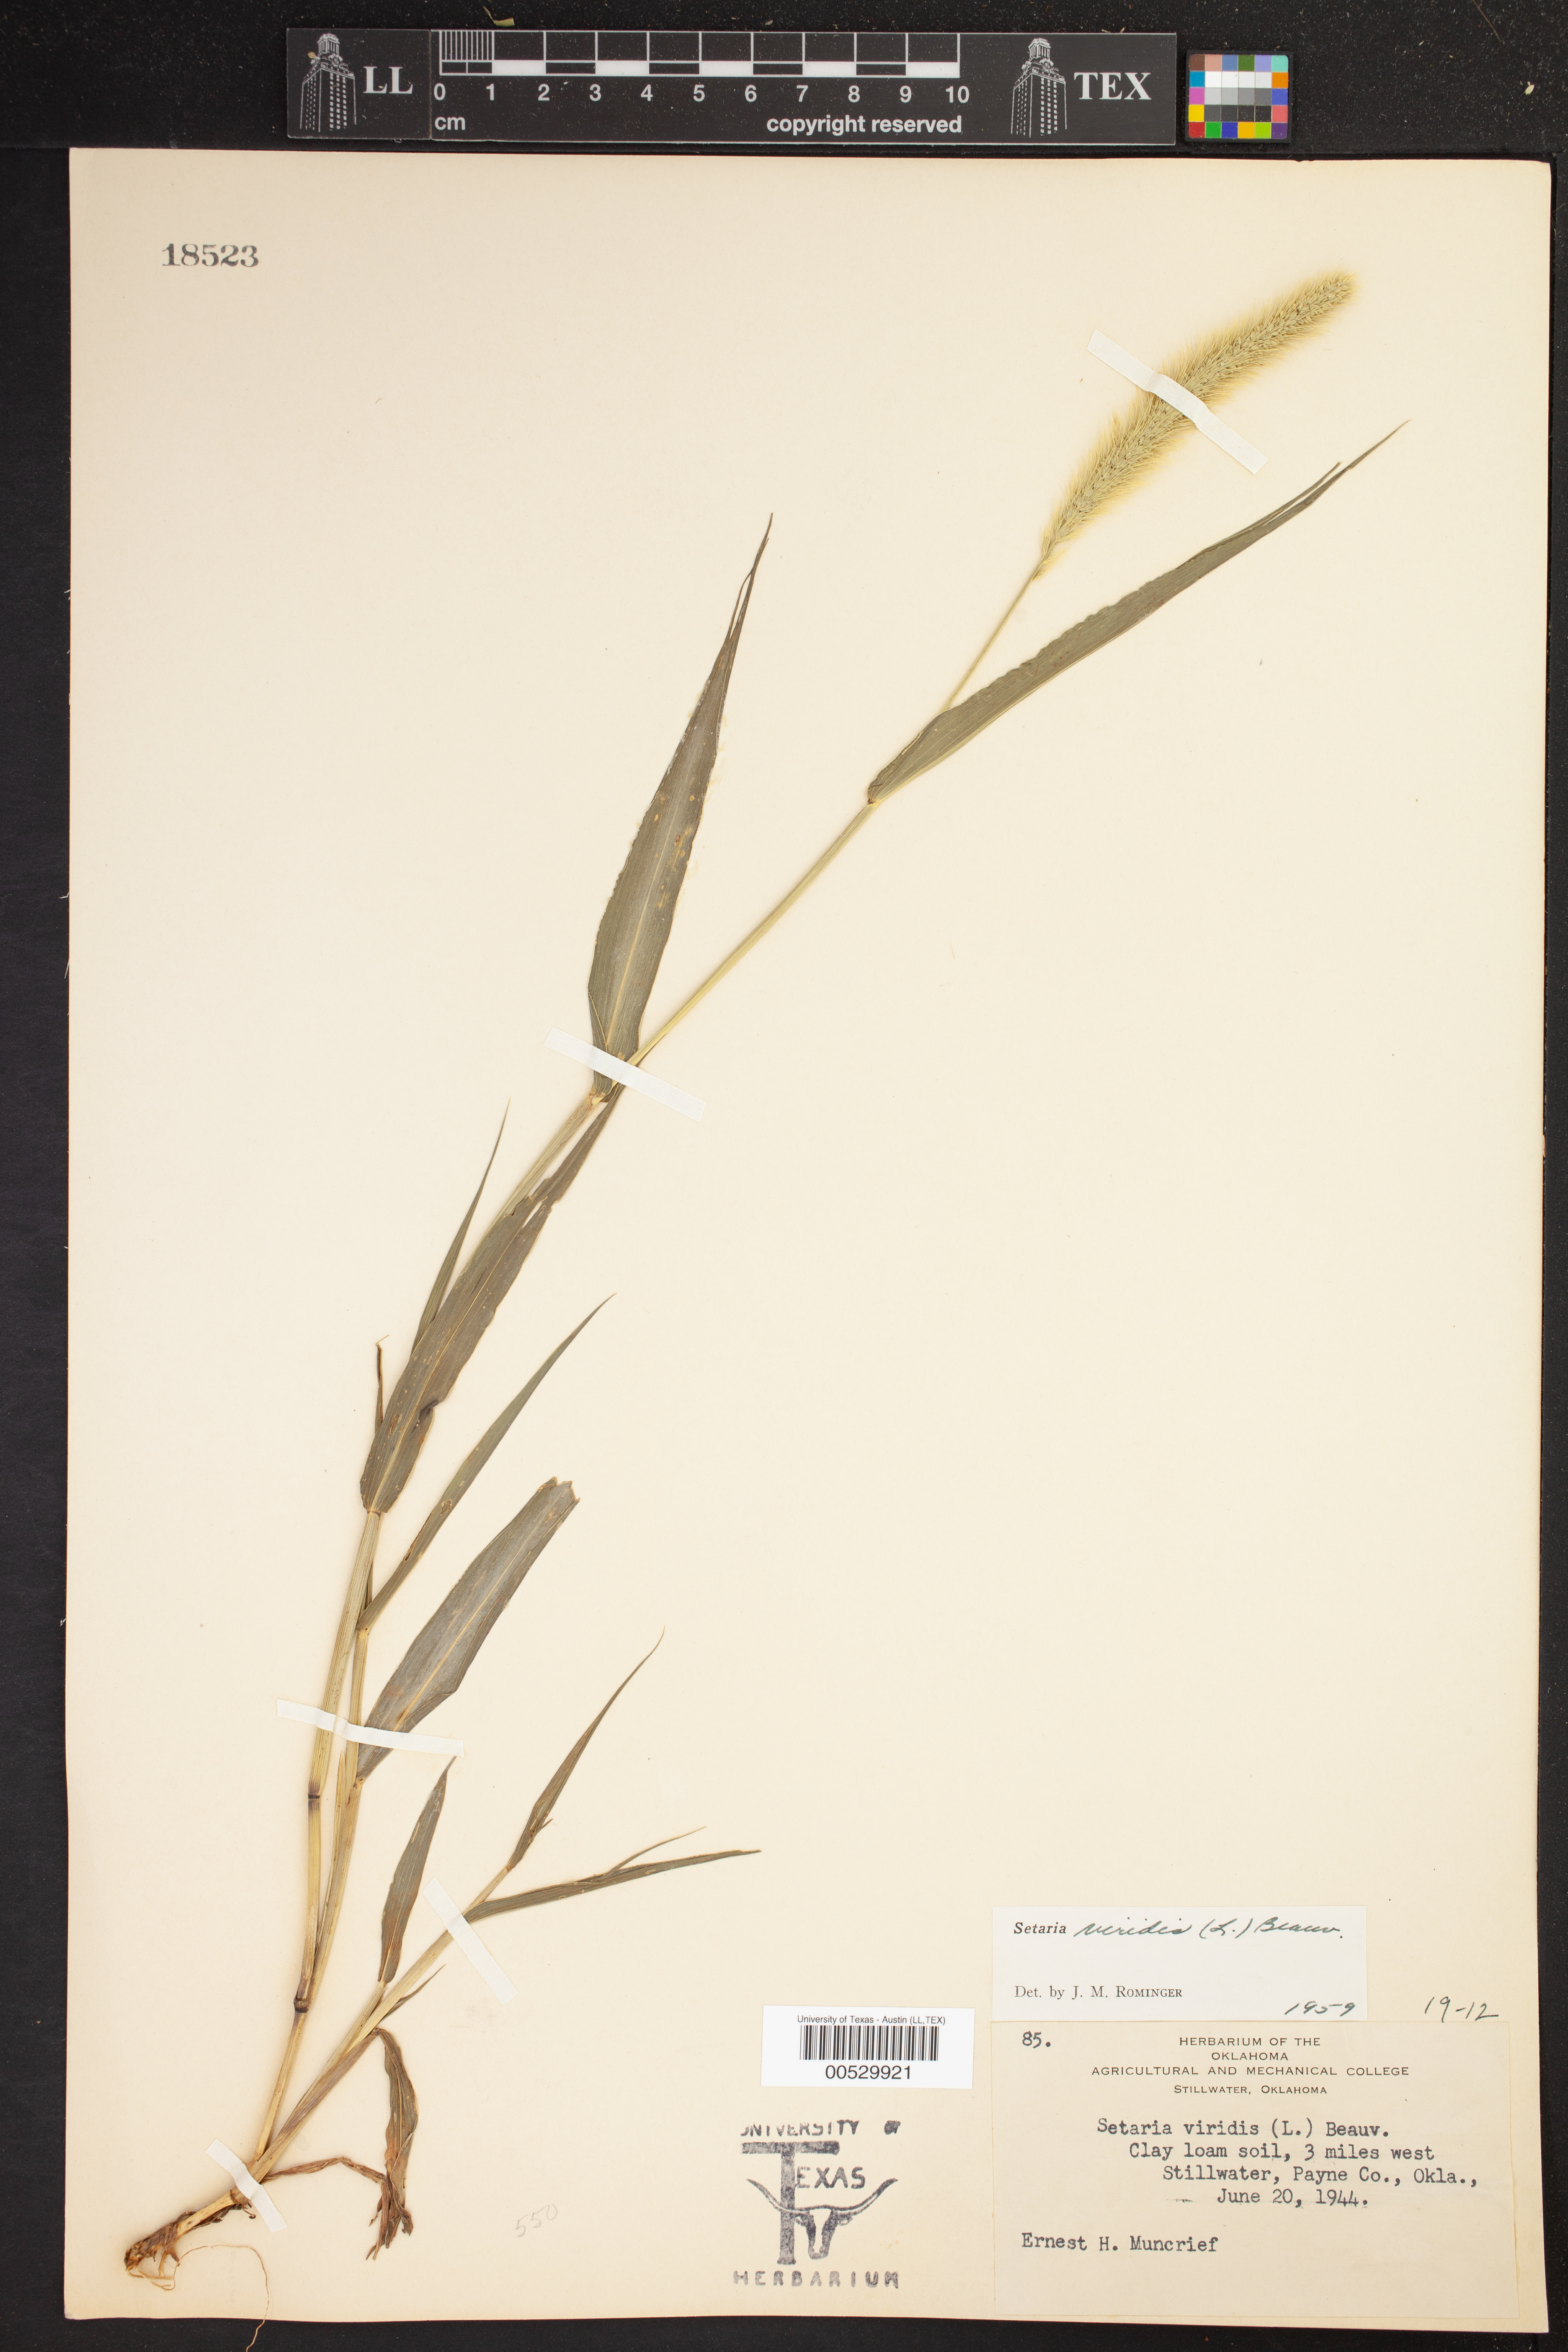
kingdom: Plantae
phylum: Tracheophyta
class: Liliopsida
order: Poales
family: Poaceae
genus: Setaria
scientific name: Setaria viridis
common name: Green bristlegrass
